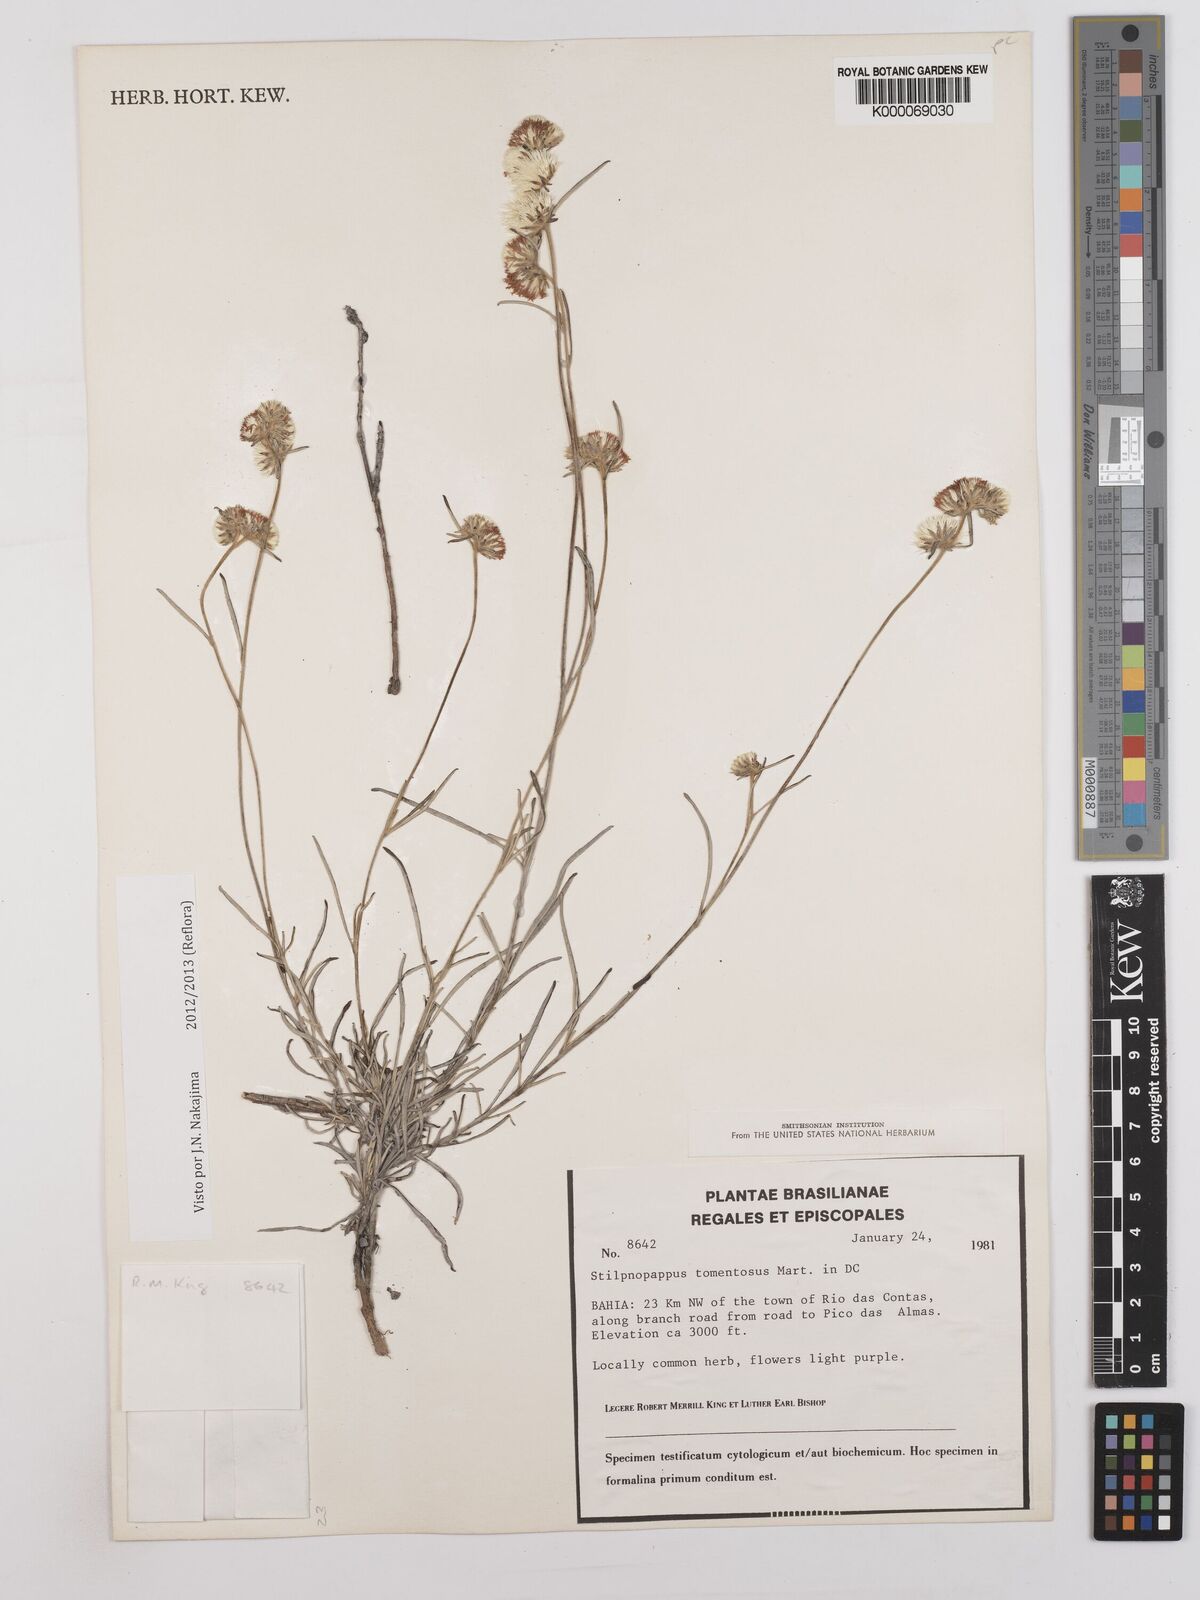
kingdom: Plantae
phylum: Tracheophyta
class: Magnoliopsida
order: Asterales
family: Asteraceae
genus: Stilpnopappus
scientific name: Stilpnopappus tomentosus
